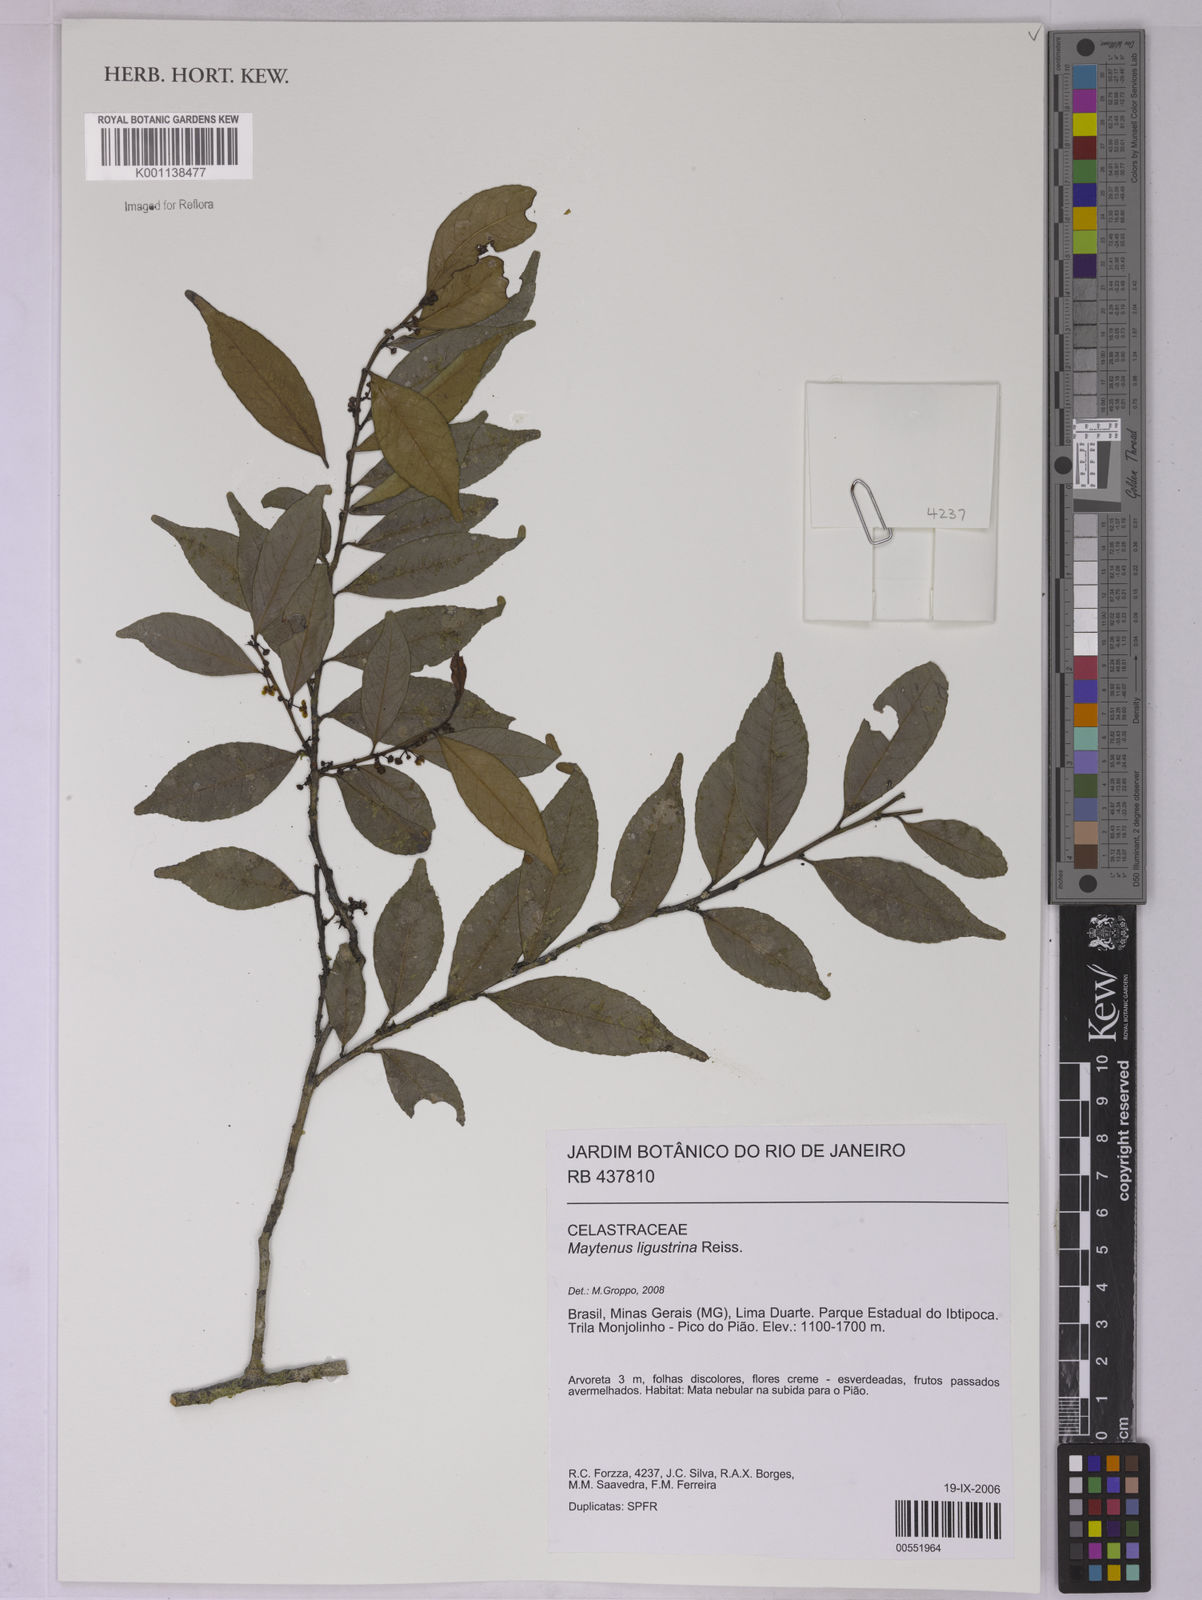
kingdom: Plantae
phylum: Tracheophyta
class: Magnoliopsida
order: Celastrales
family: Celastraceae
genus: Monteverdia
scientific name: Monteverdia brasiliensis
